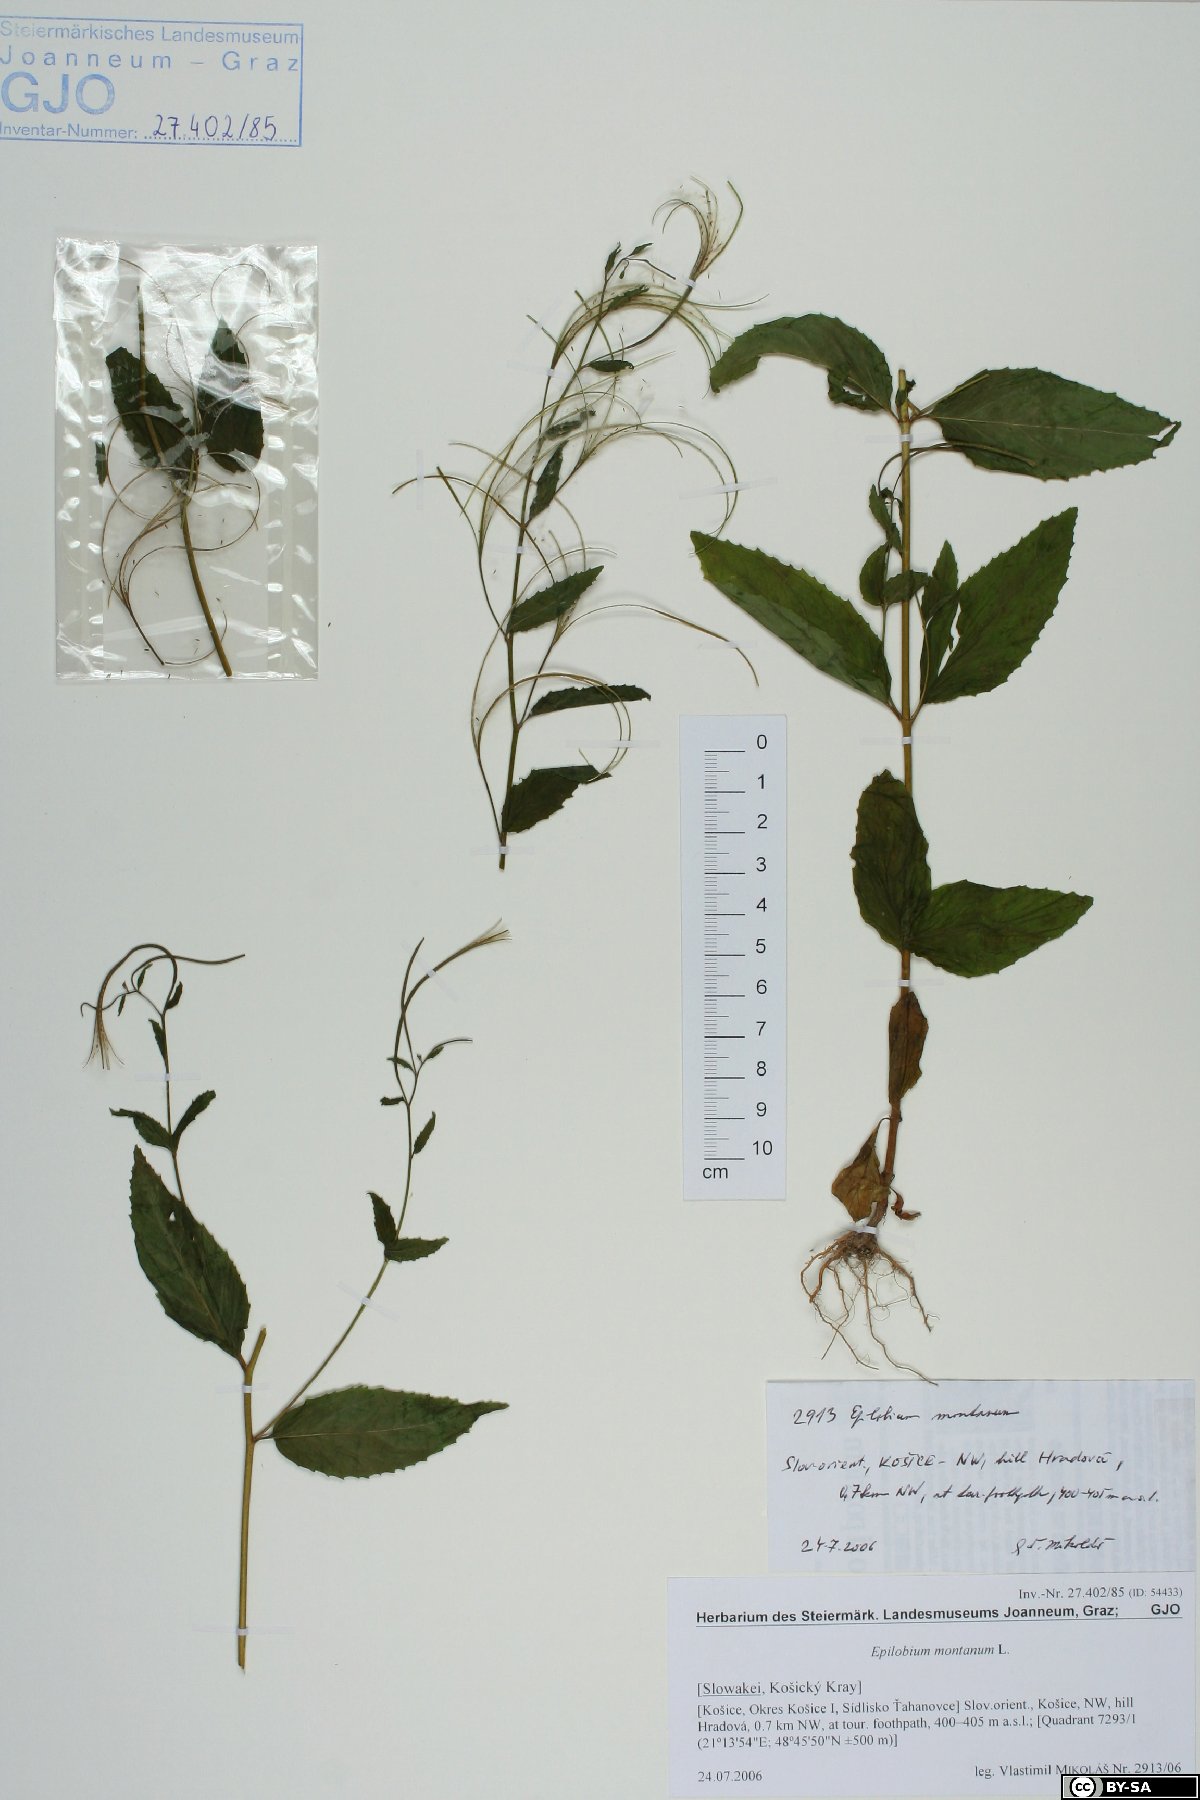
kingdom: Plantae
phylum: Tracheophyta
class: Magnoliopsida
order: Myrtales
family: Onagraceae
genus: Epilobium
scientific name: Epilobium montanum
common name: Broad-leaved willowherb
